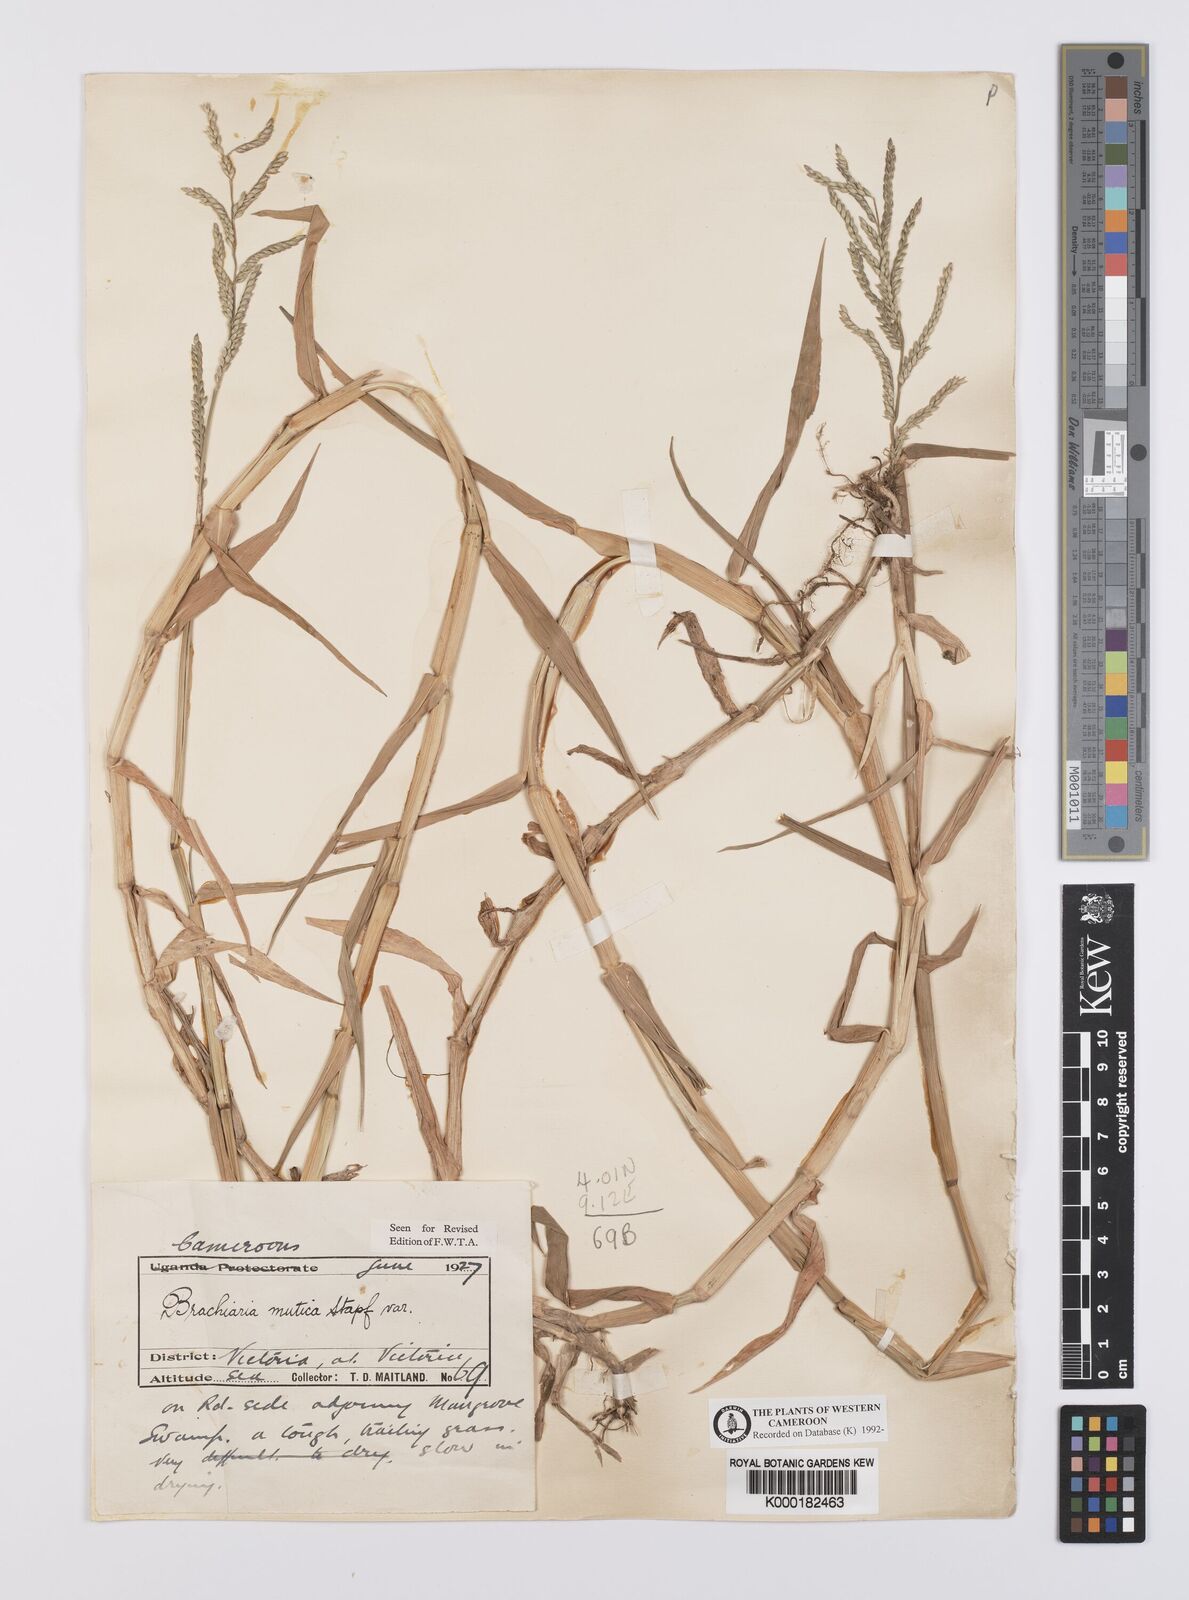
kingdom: Plantae
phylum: Tracheophyta
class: Liliopsida
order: Poales
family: Poaceae
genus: Urochloa
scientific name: Urochloa mutica
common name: Para grass
